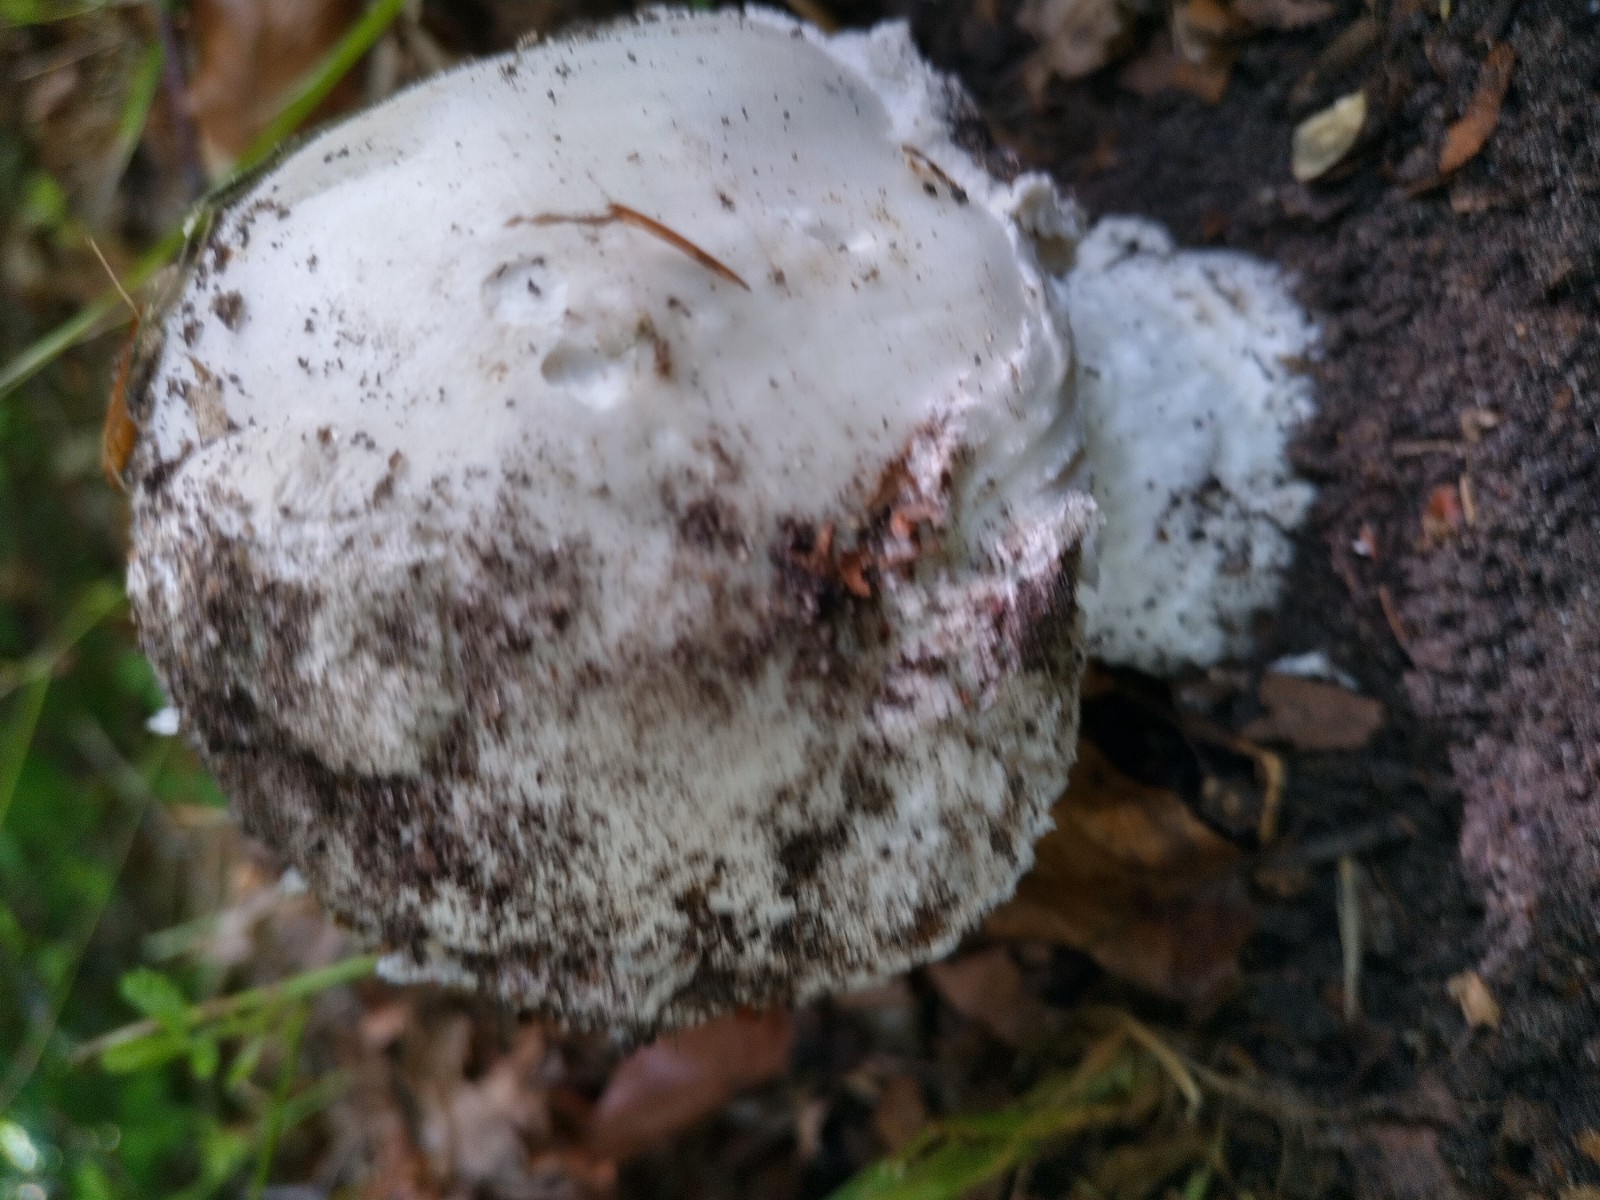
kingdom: Fungi
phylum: Basidiomycota
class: Agaricomycetes
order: Agaricales
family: Amanitaceae
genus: Amanita
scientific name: Amanita
